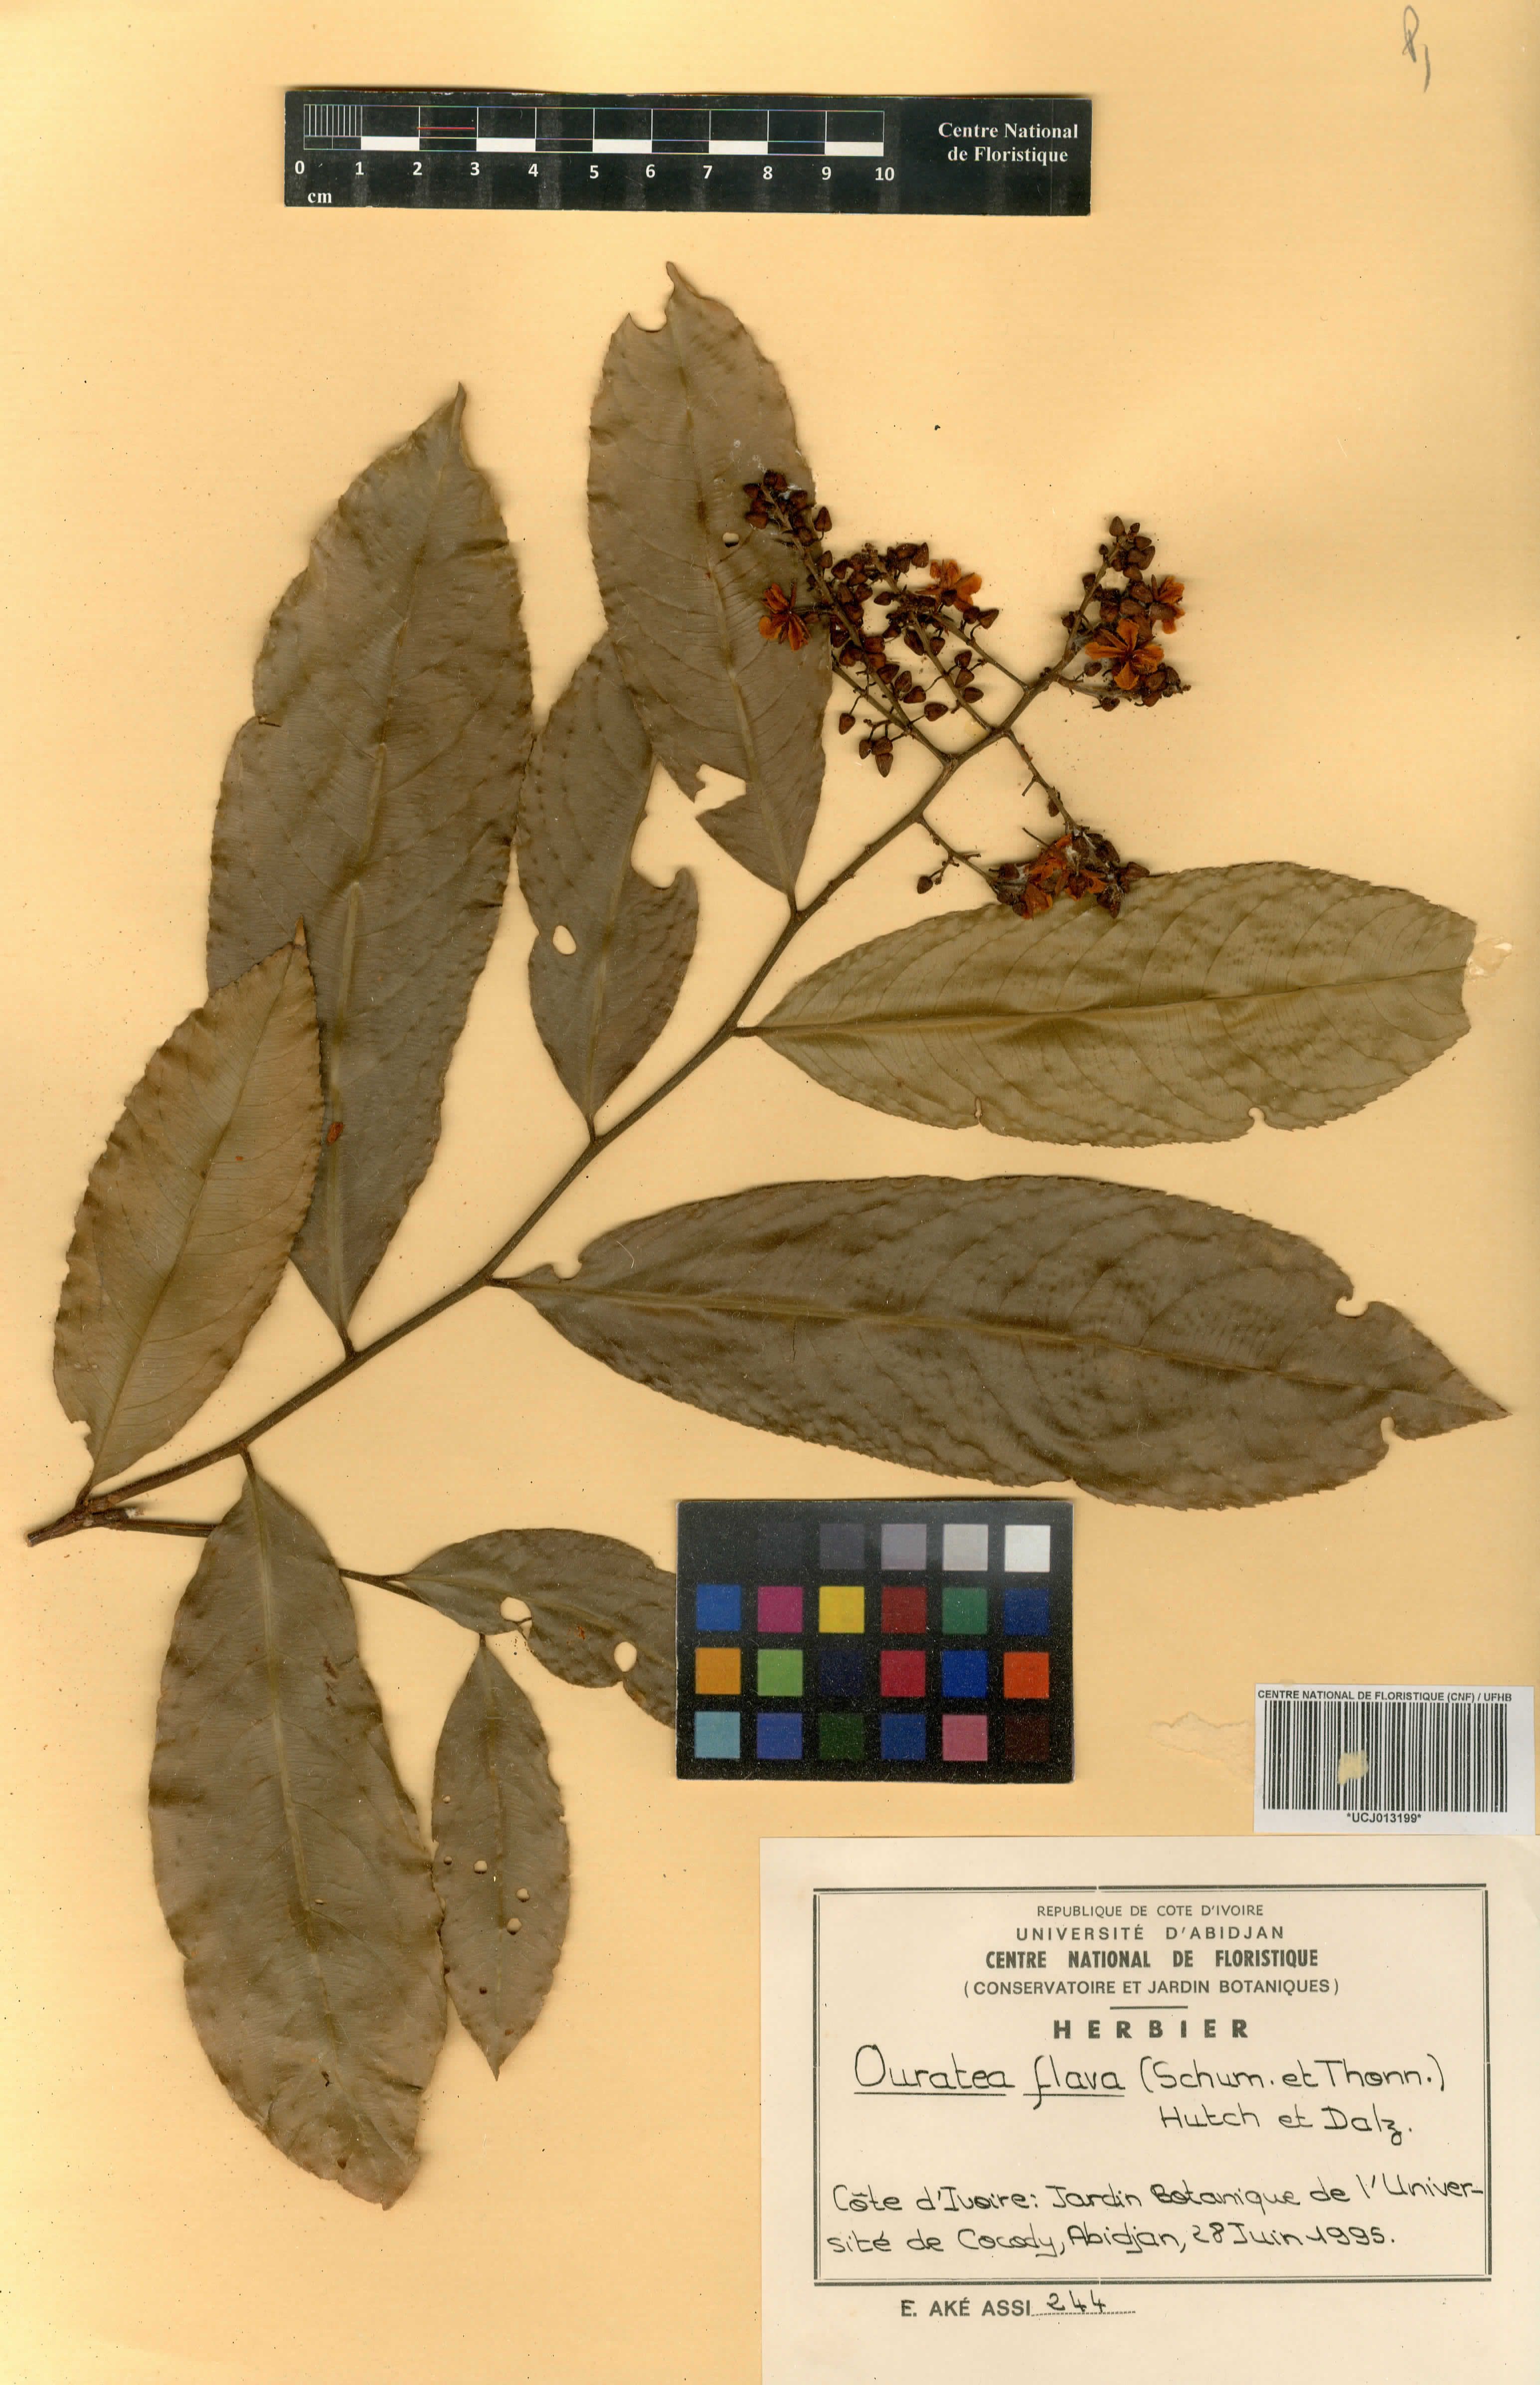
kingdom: Plantae
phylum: Tracheophyta
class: Magnoliopsida
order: Malpighiales
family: Ochnaceae
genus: Campylospermum
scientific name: Campylospermum flavum
